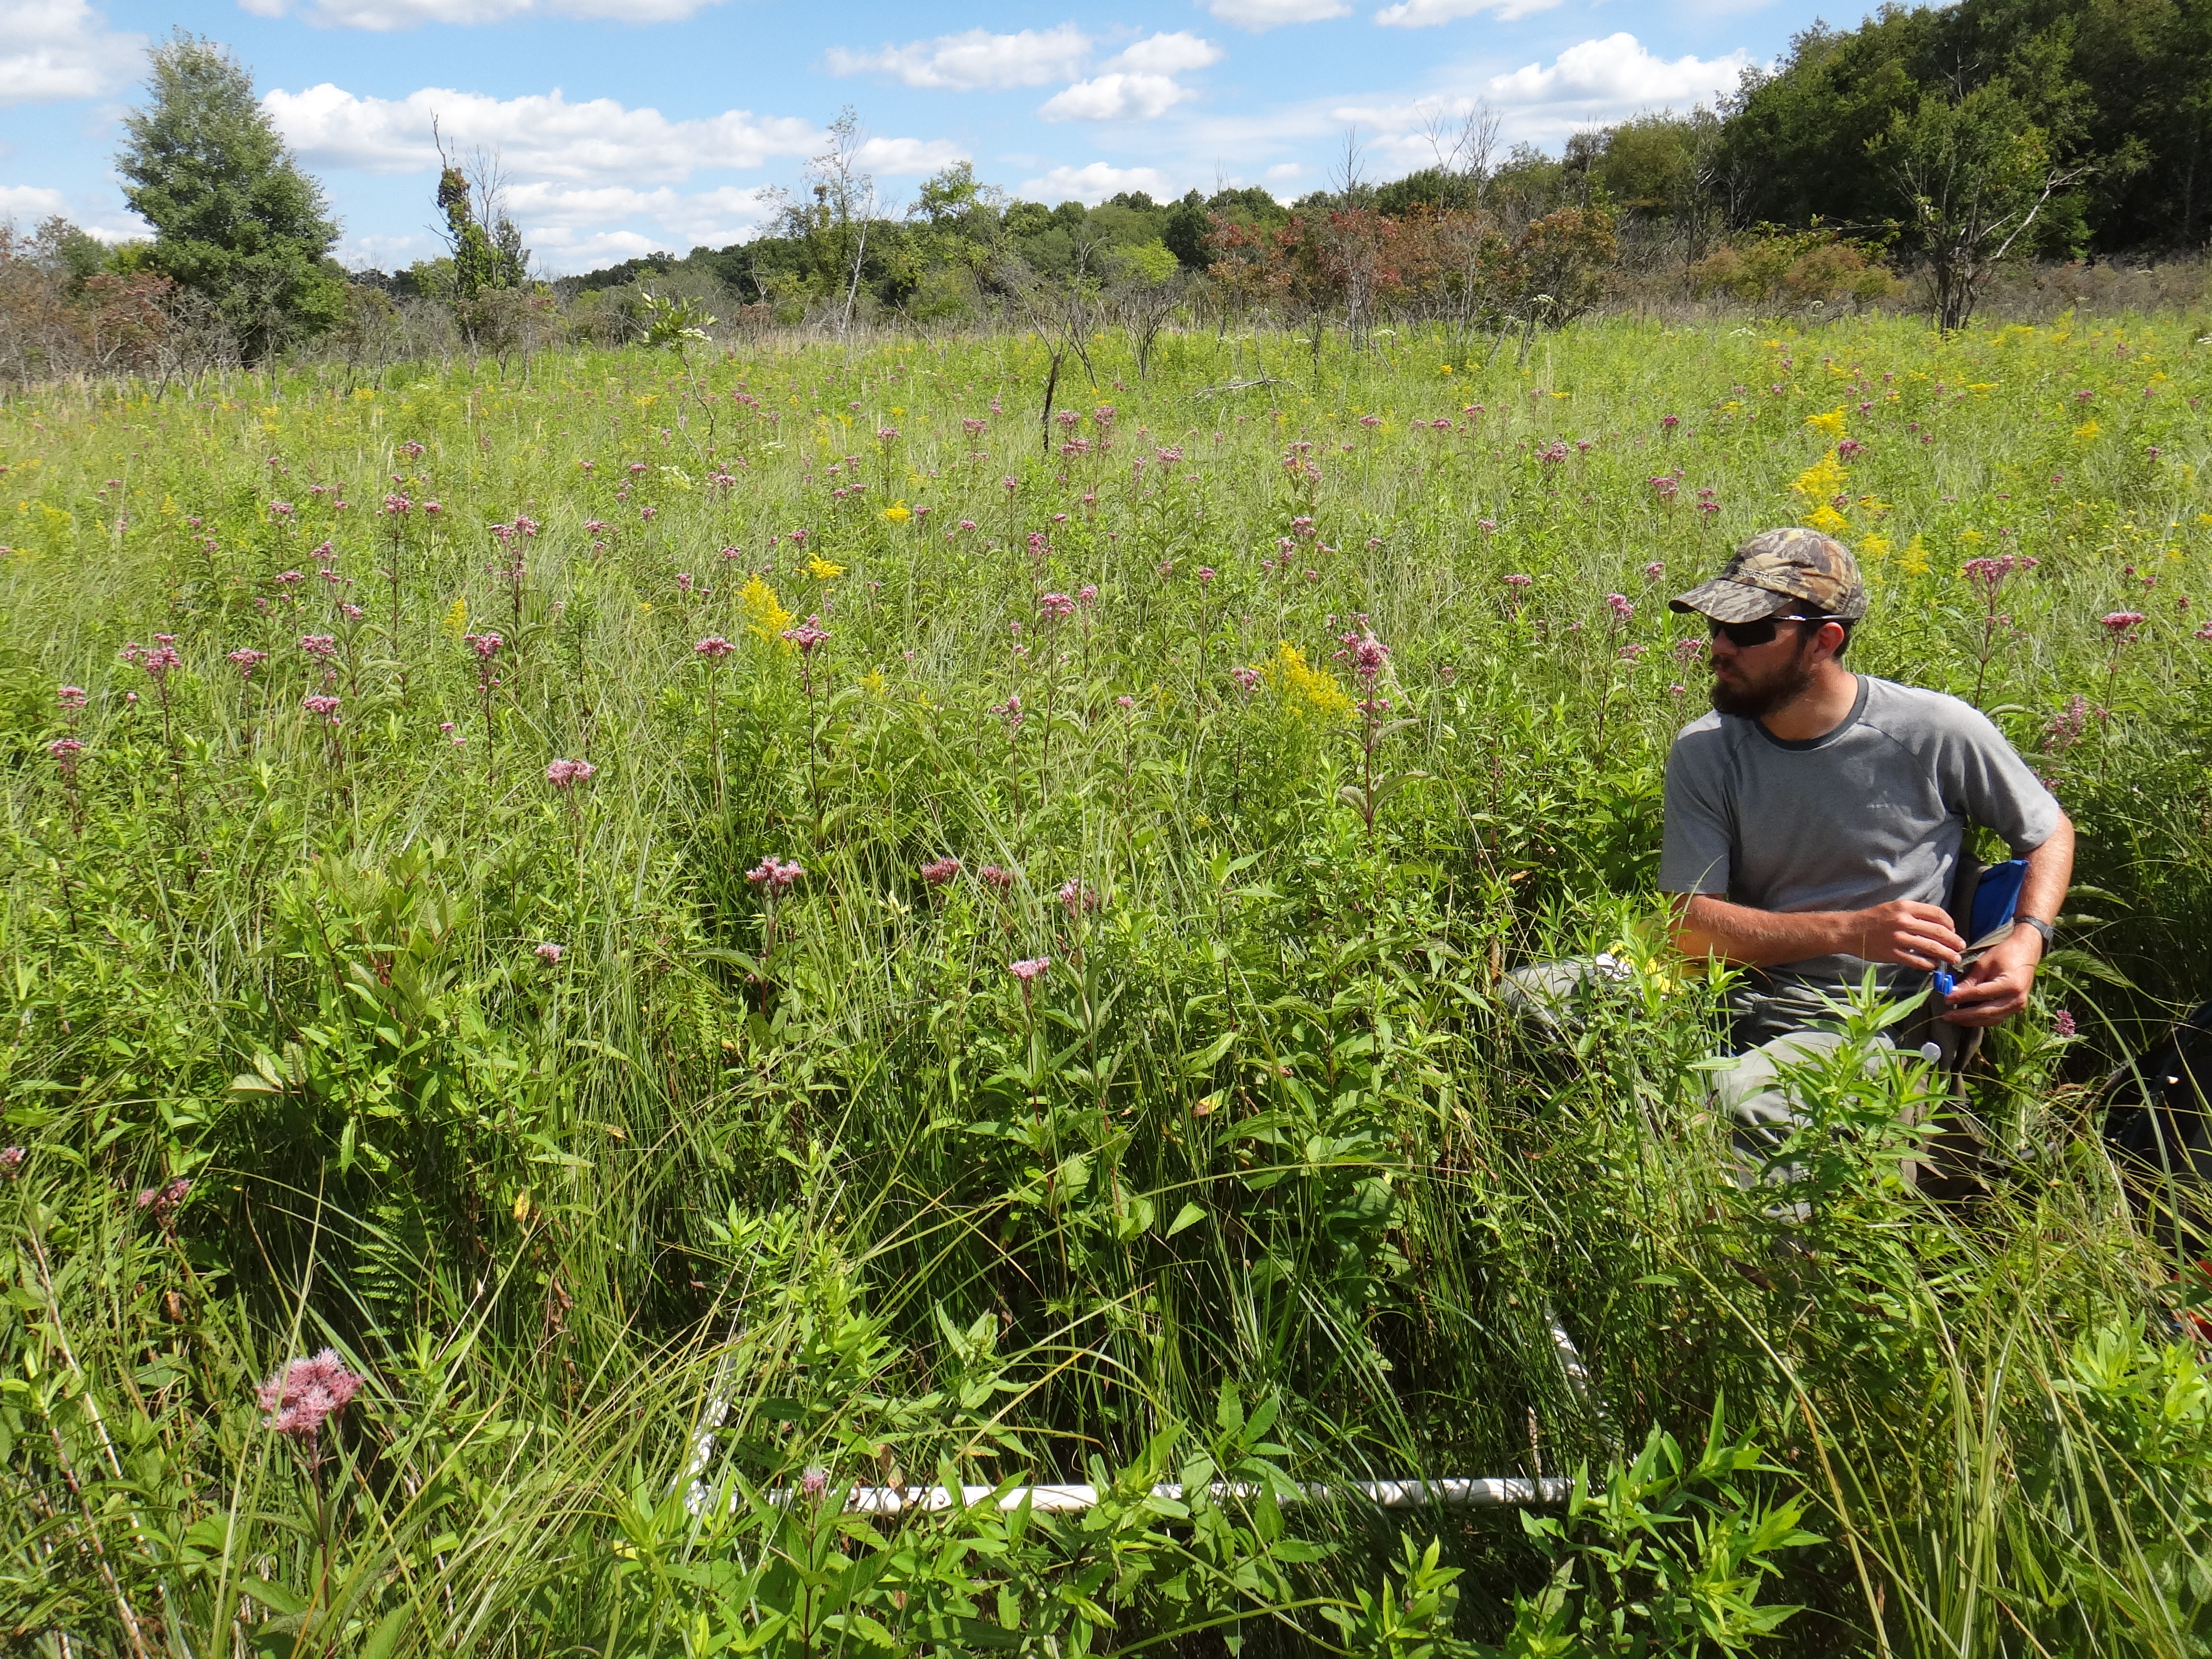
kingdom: Plantae
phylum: Tracheophyta
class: Magnoliopsida
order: Apiales
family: Apiaceae
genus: Oxypolis
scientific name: Oxypolis rigidior
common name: Cowbane
